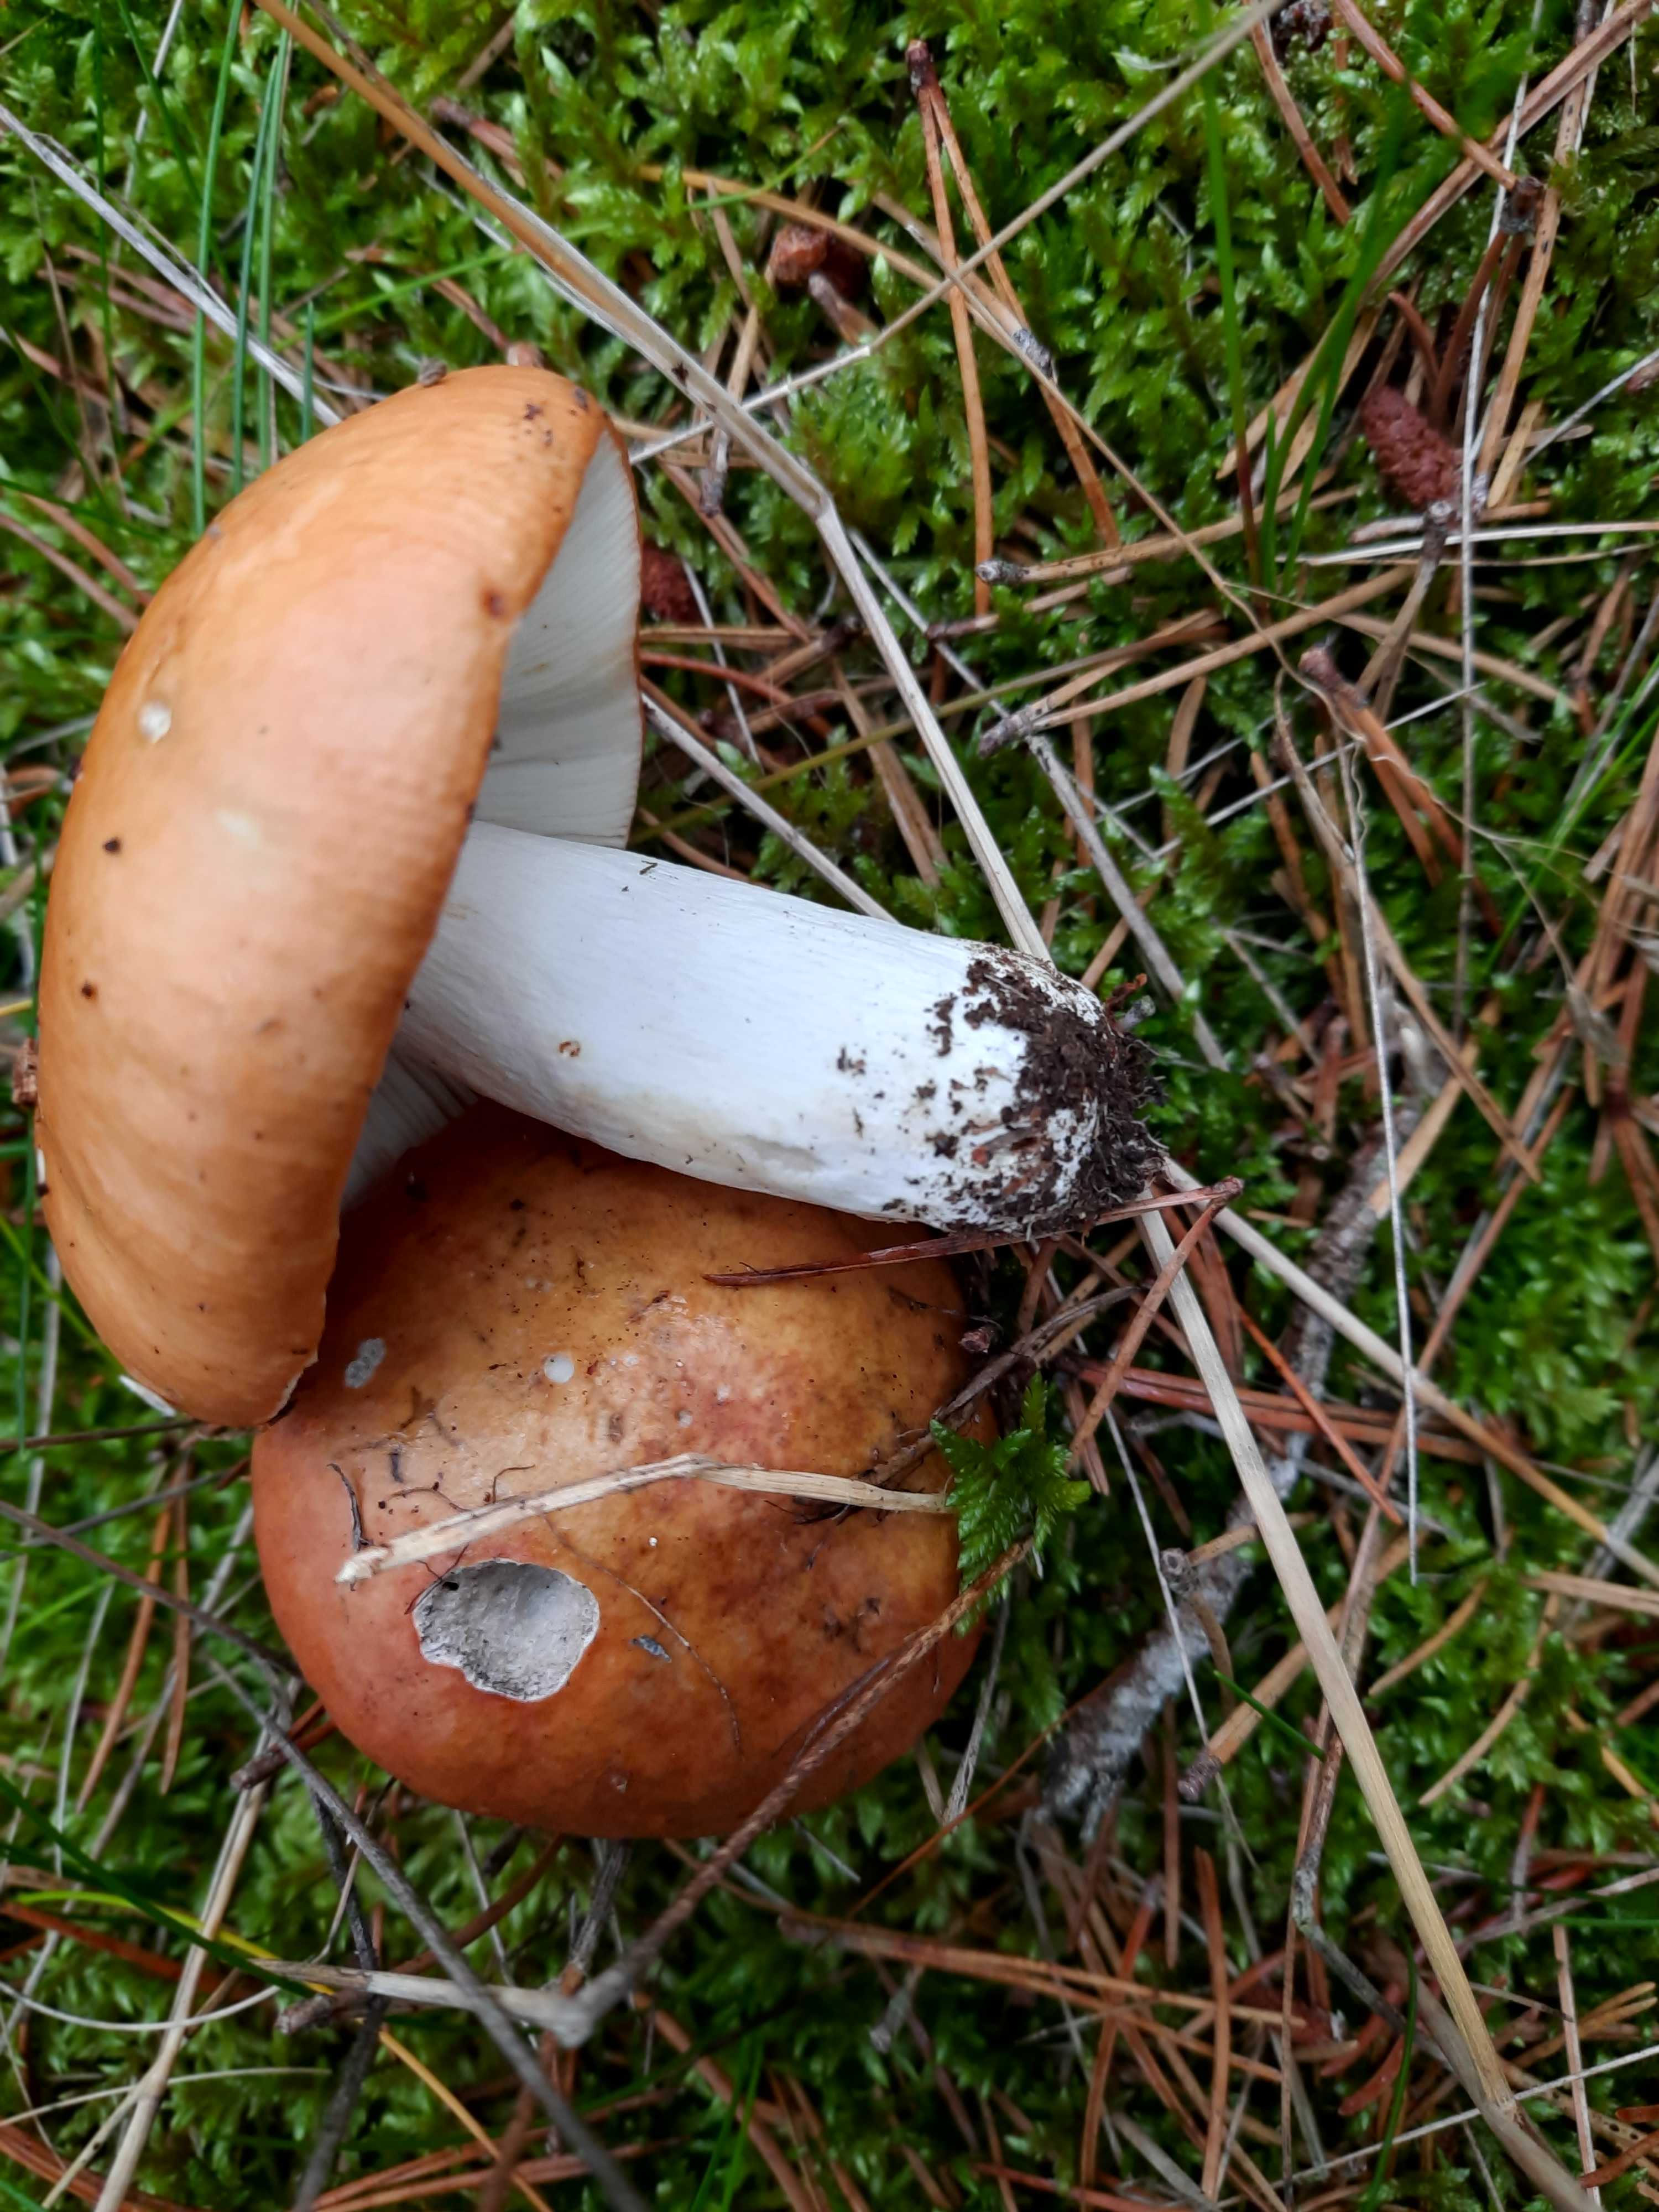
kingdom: Fungi
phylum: Basidiomycota
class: Agaricomycetes
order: Russulales
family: Russulaceae
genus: Russula
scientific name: Russula decolorans
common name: afblegende skørhat
